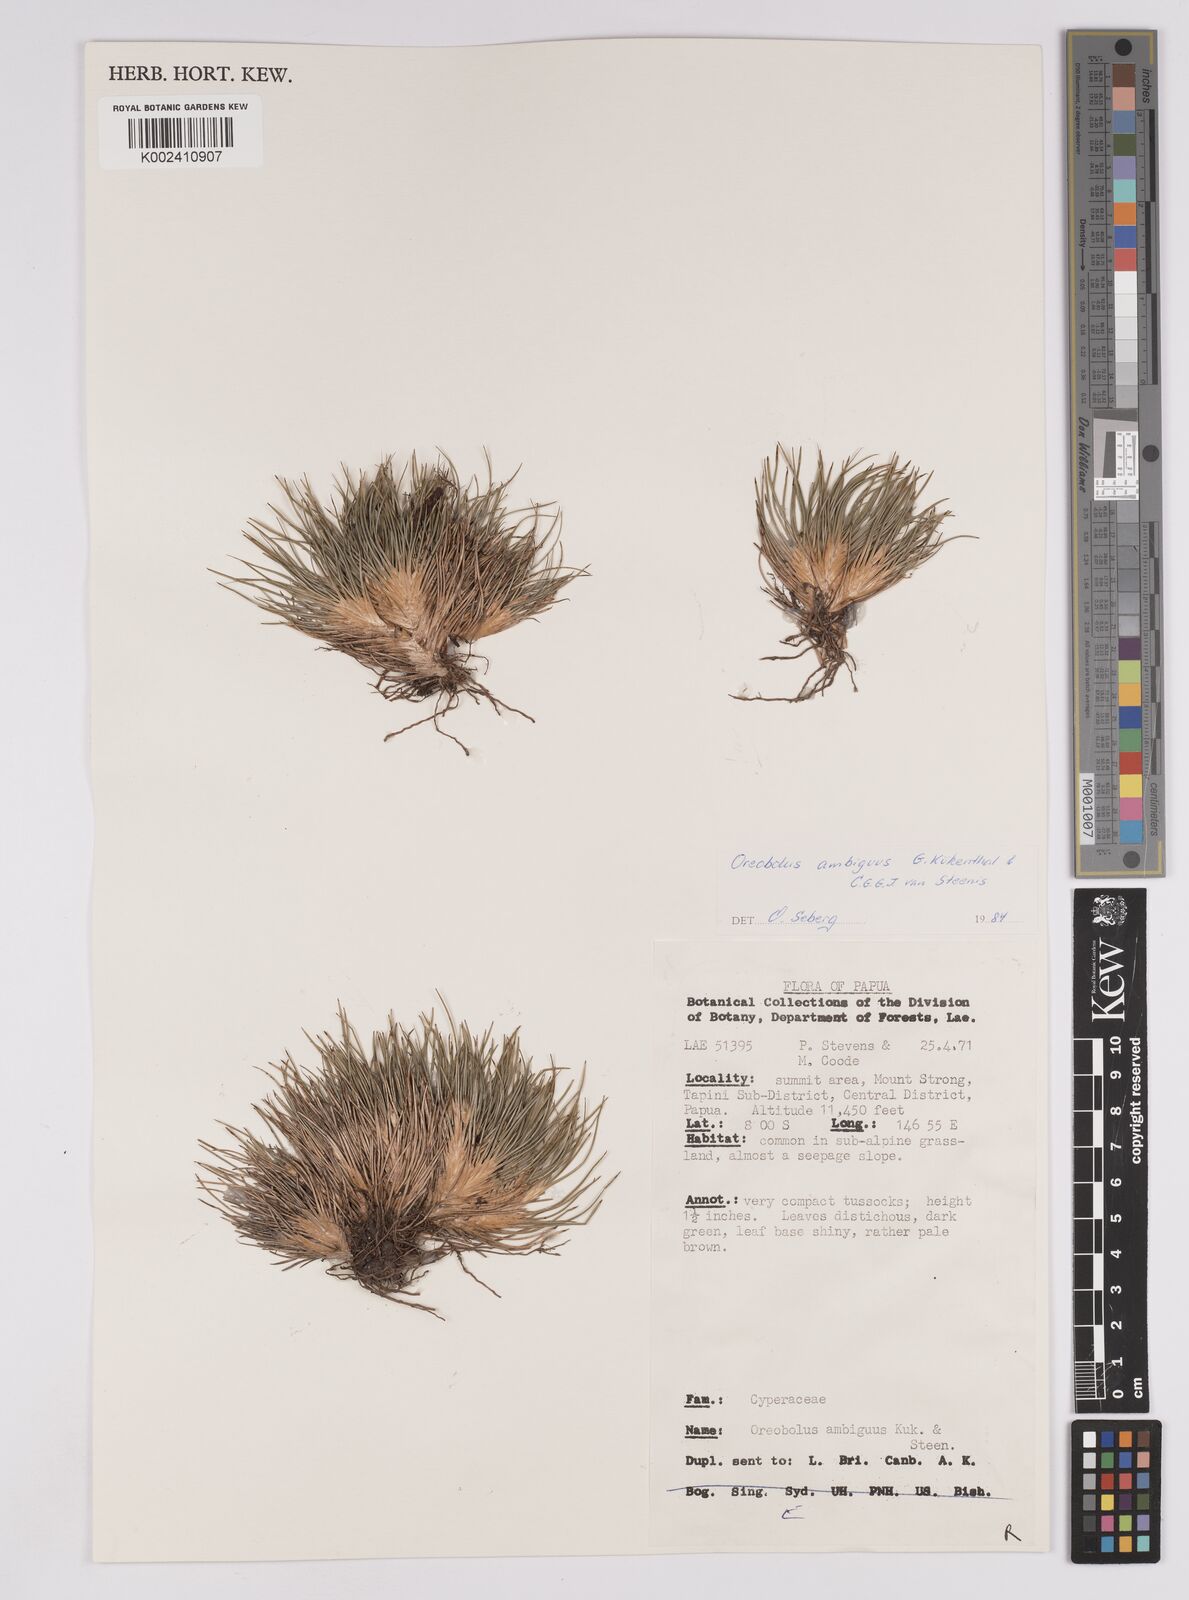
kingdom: Plantae
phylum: Tracheophyta
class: Liliopsida
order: Poales
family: Cyperaceae
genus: Oreobolus
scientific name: Oreobolus ambiguus
